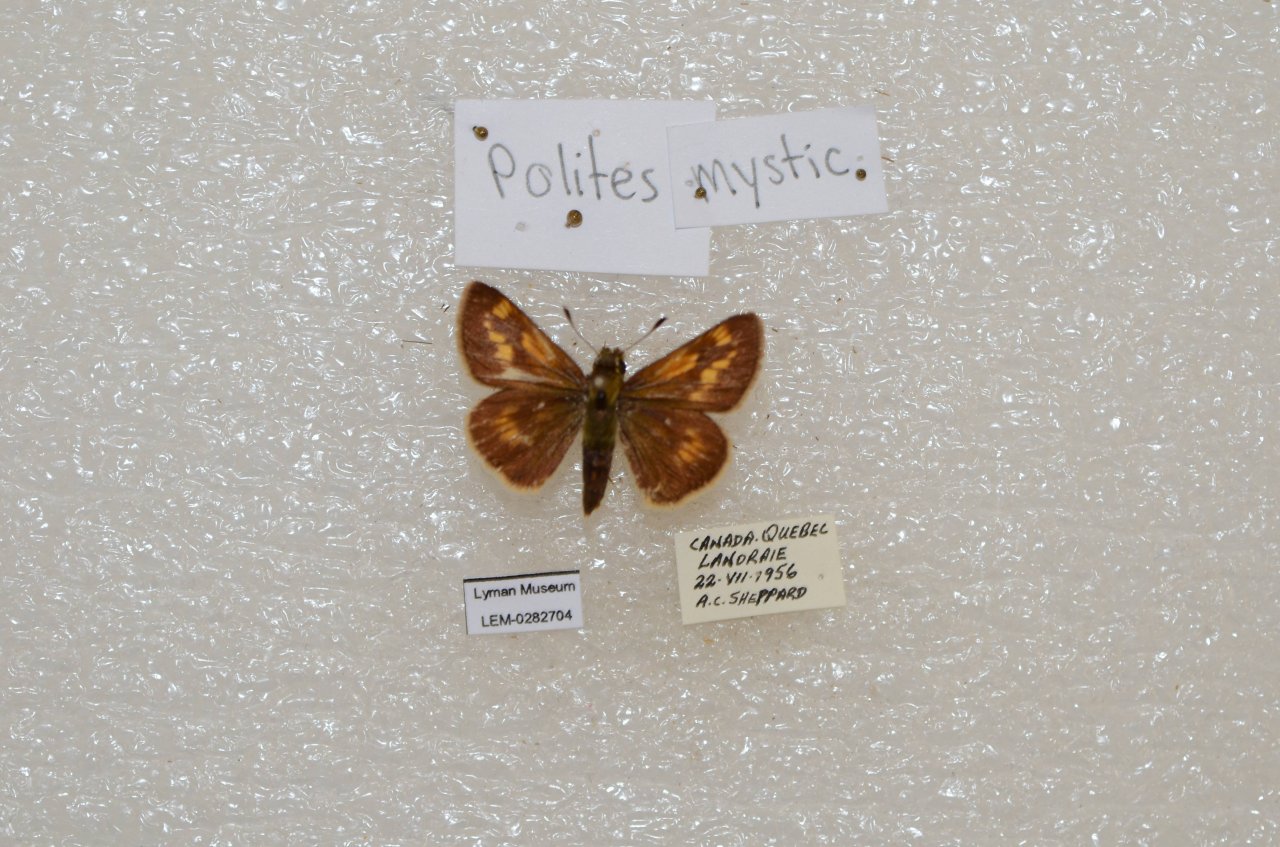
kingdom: Animalia
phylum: Arthropoda
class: Insecta
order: Lepidoptera
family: Hesperiidae
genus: Polites
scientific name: Polites
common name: Long Dash Skipper
